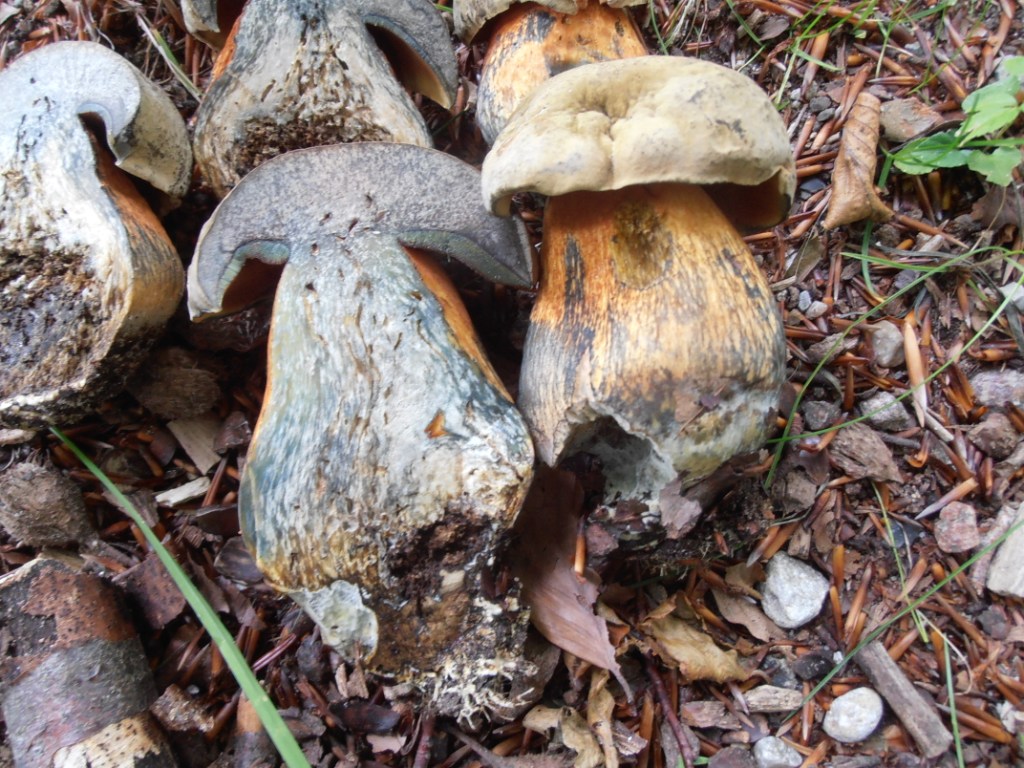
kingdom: Fungi
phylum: Basidiomycota
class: Agaricomycetes
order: Boletales
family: Boletaceae
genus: Suillellus
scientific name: Suillellus luridus
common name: netstokket indigorørhat
